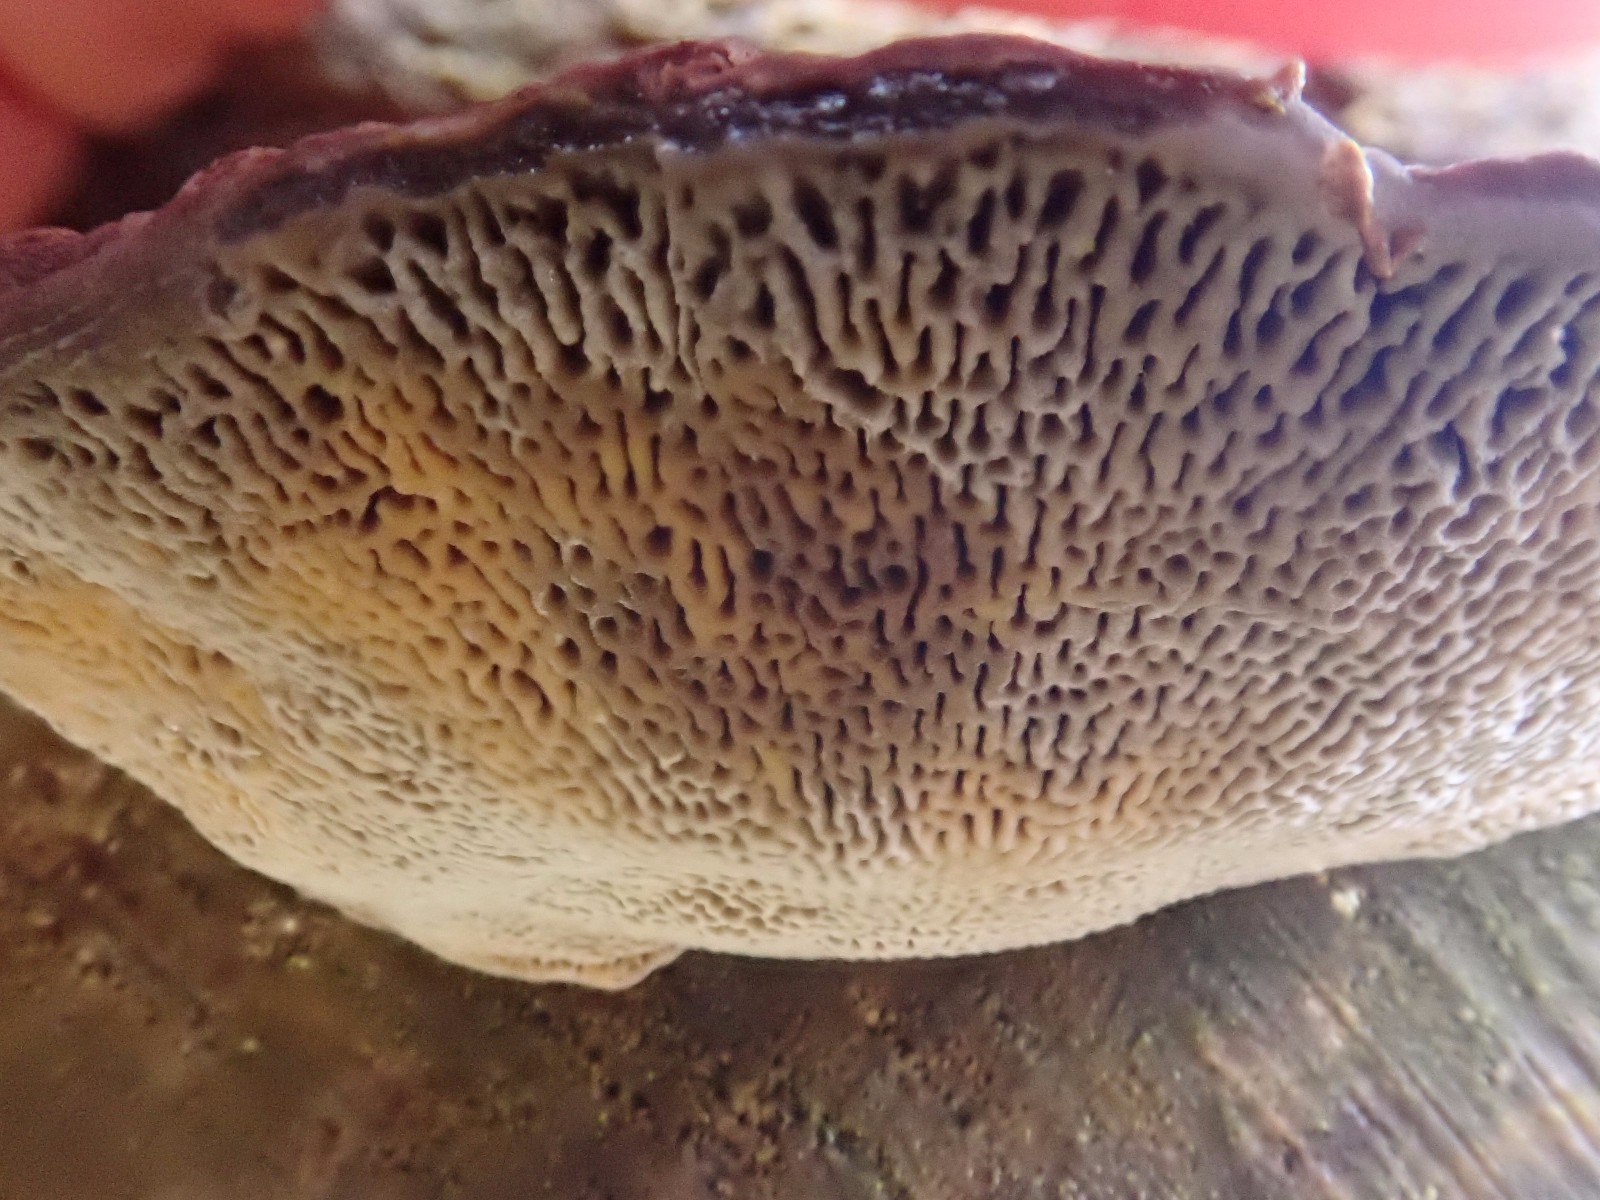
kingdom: Fungi
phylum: Basidiomycota
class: Agaricomycetes
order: Polyporales
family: Polyporaceae
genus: Daedaleopsis
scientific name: Daedaleopsis confragosa
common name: rødmende læderporesvamp
